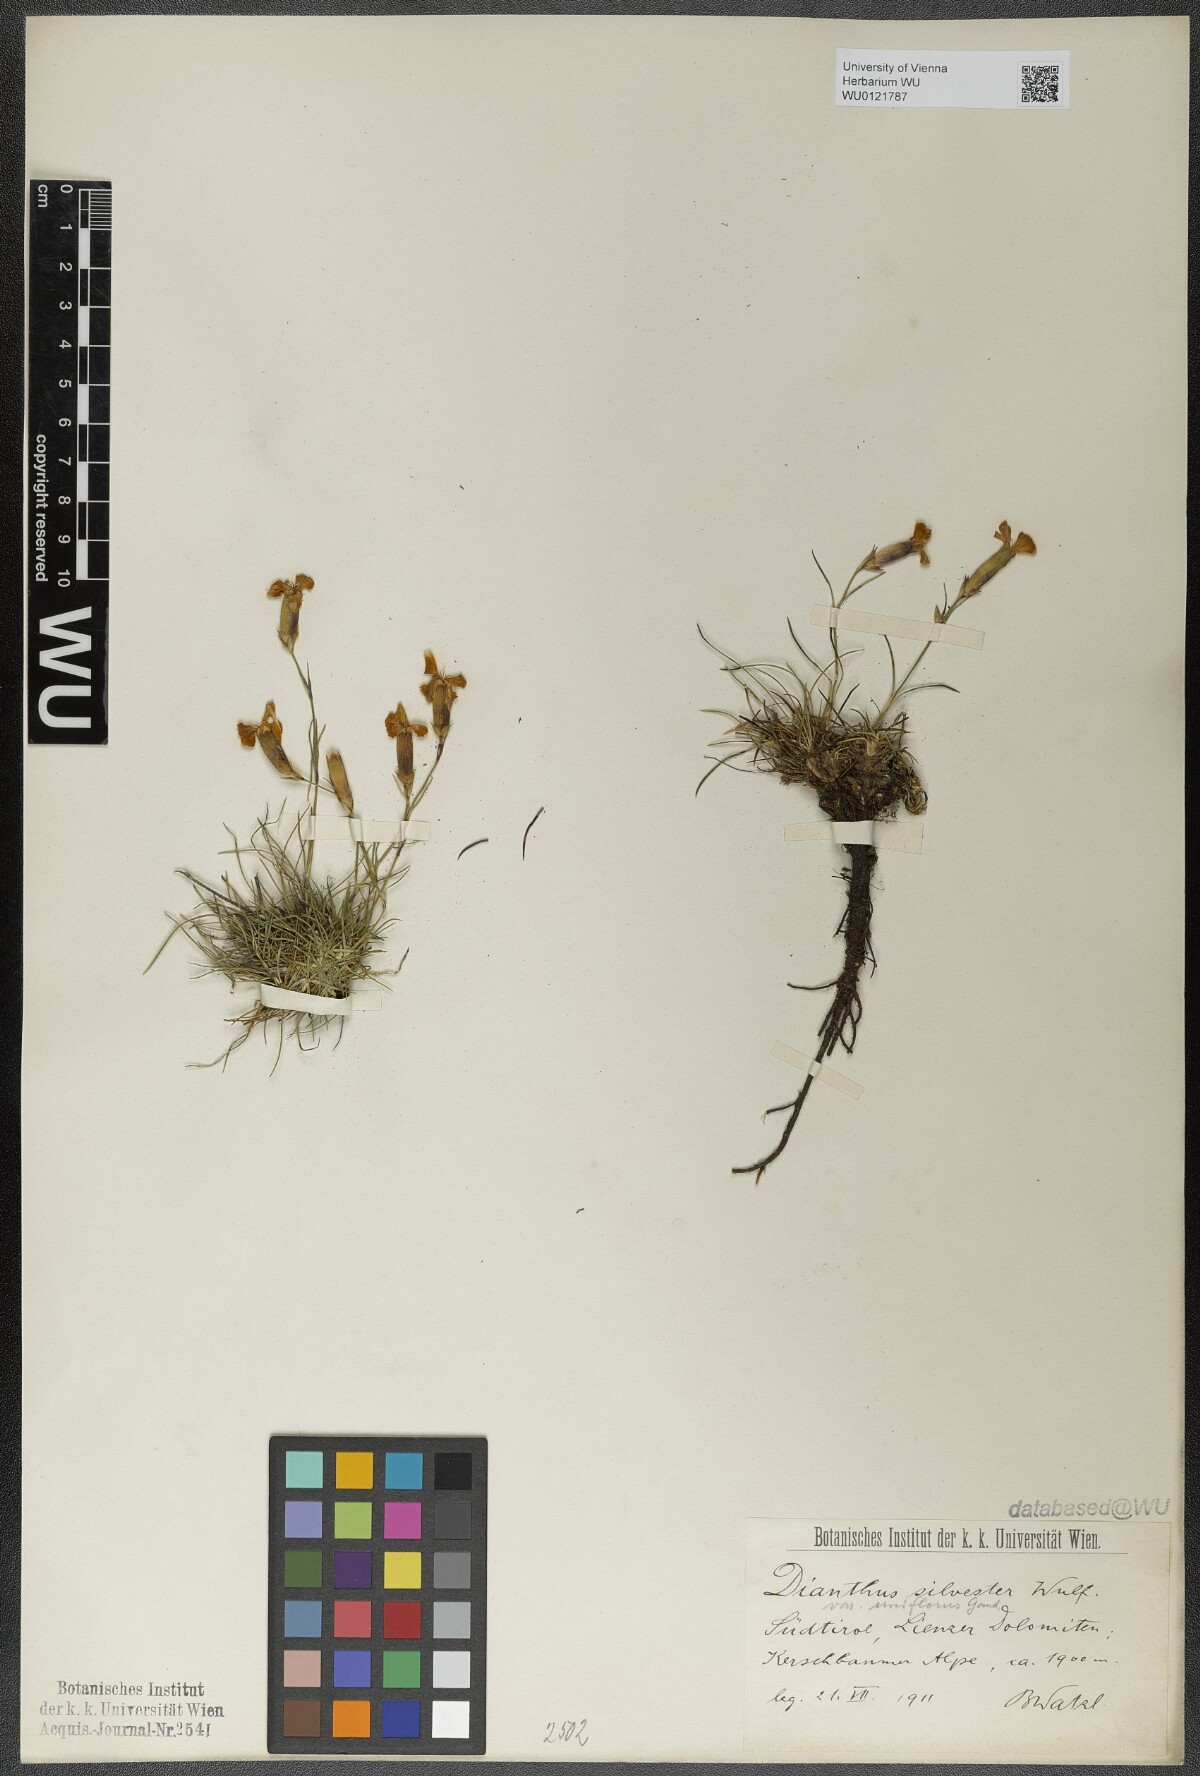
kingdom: Plantae
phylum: Tracheophyta
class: Magnoliopsida
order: Caryophyllales
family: Caryophyllaceae
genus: Dianthus
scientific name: Dianthus sylvestris
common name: Wood pink
